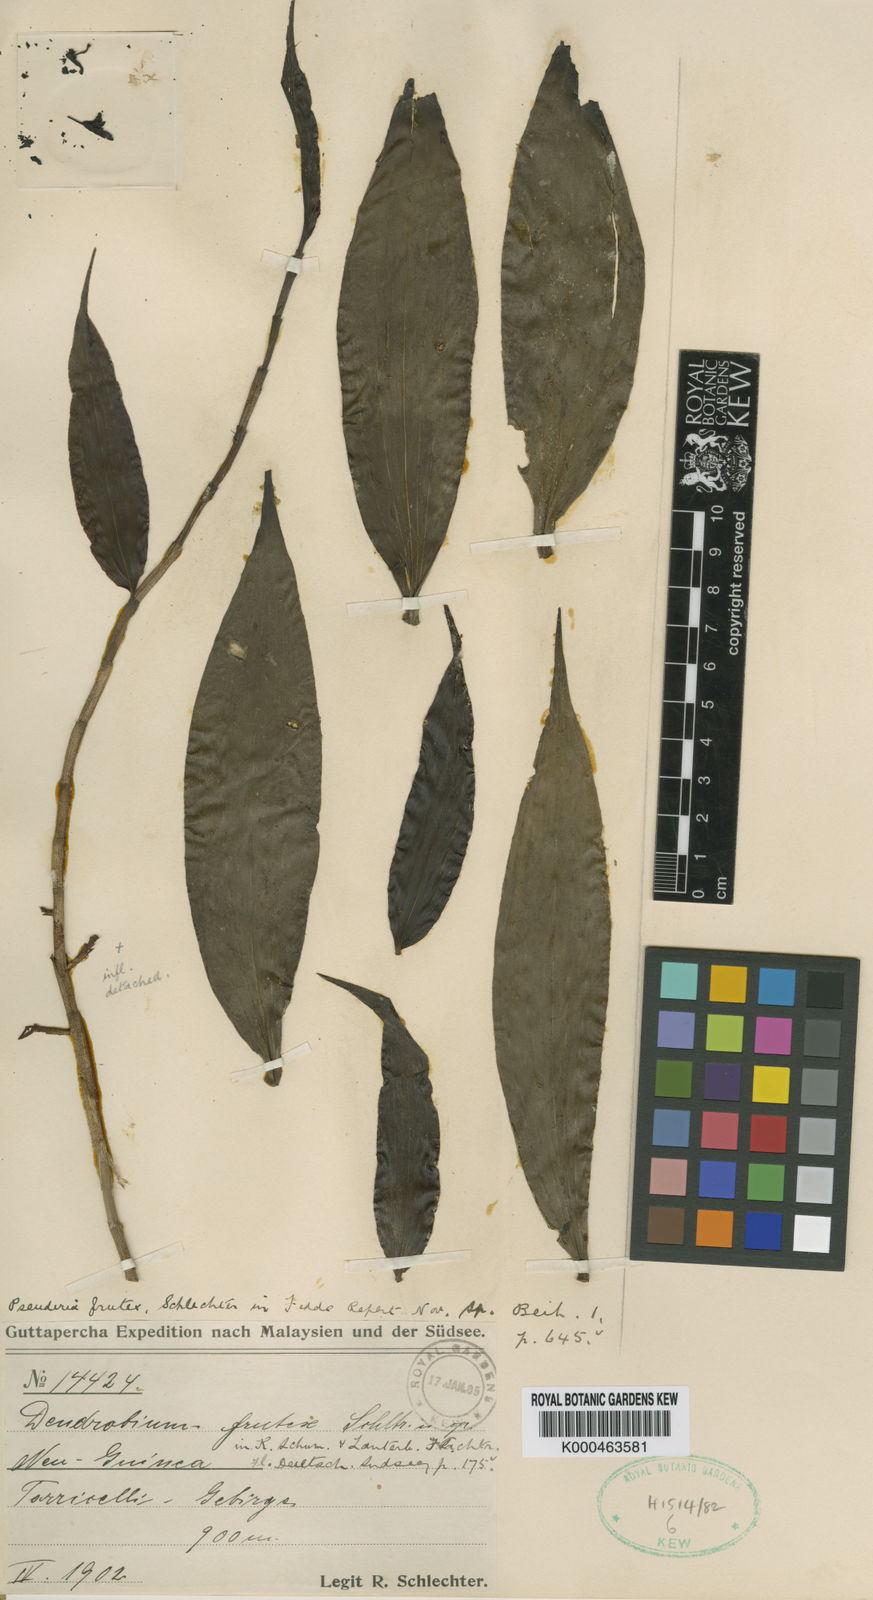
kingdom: Plantae
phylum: Tracheophyta
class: Liliopsida
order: Asparagales
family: Orchidaceae
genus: Pseuderia
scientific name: Pseuderia frutex
